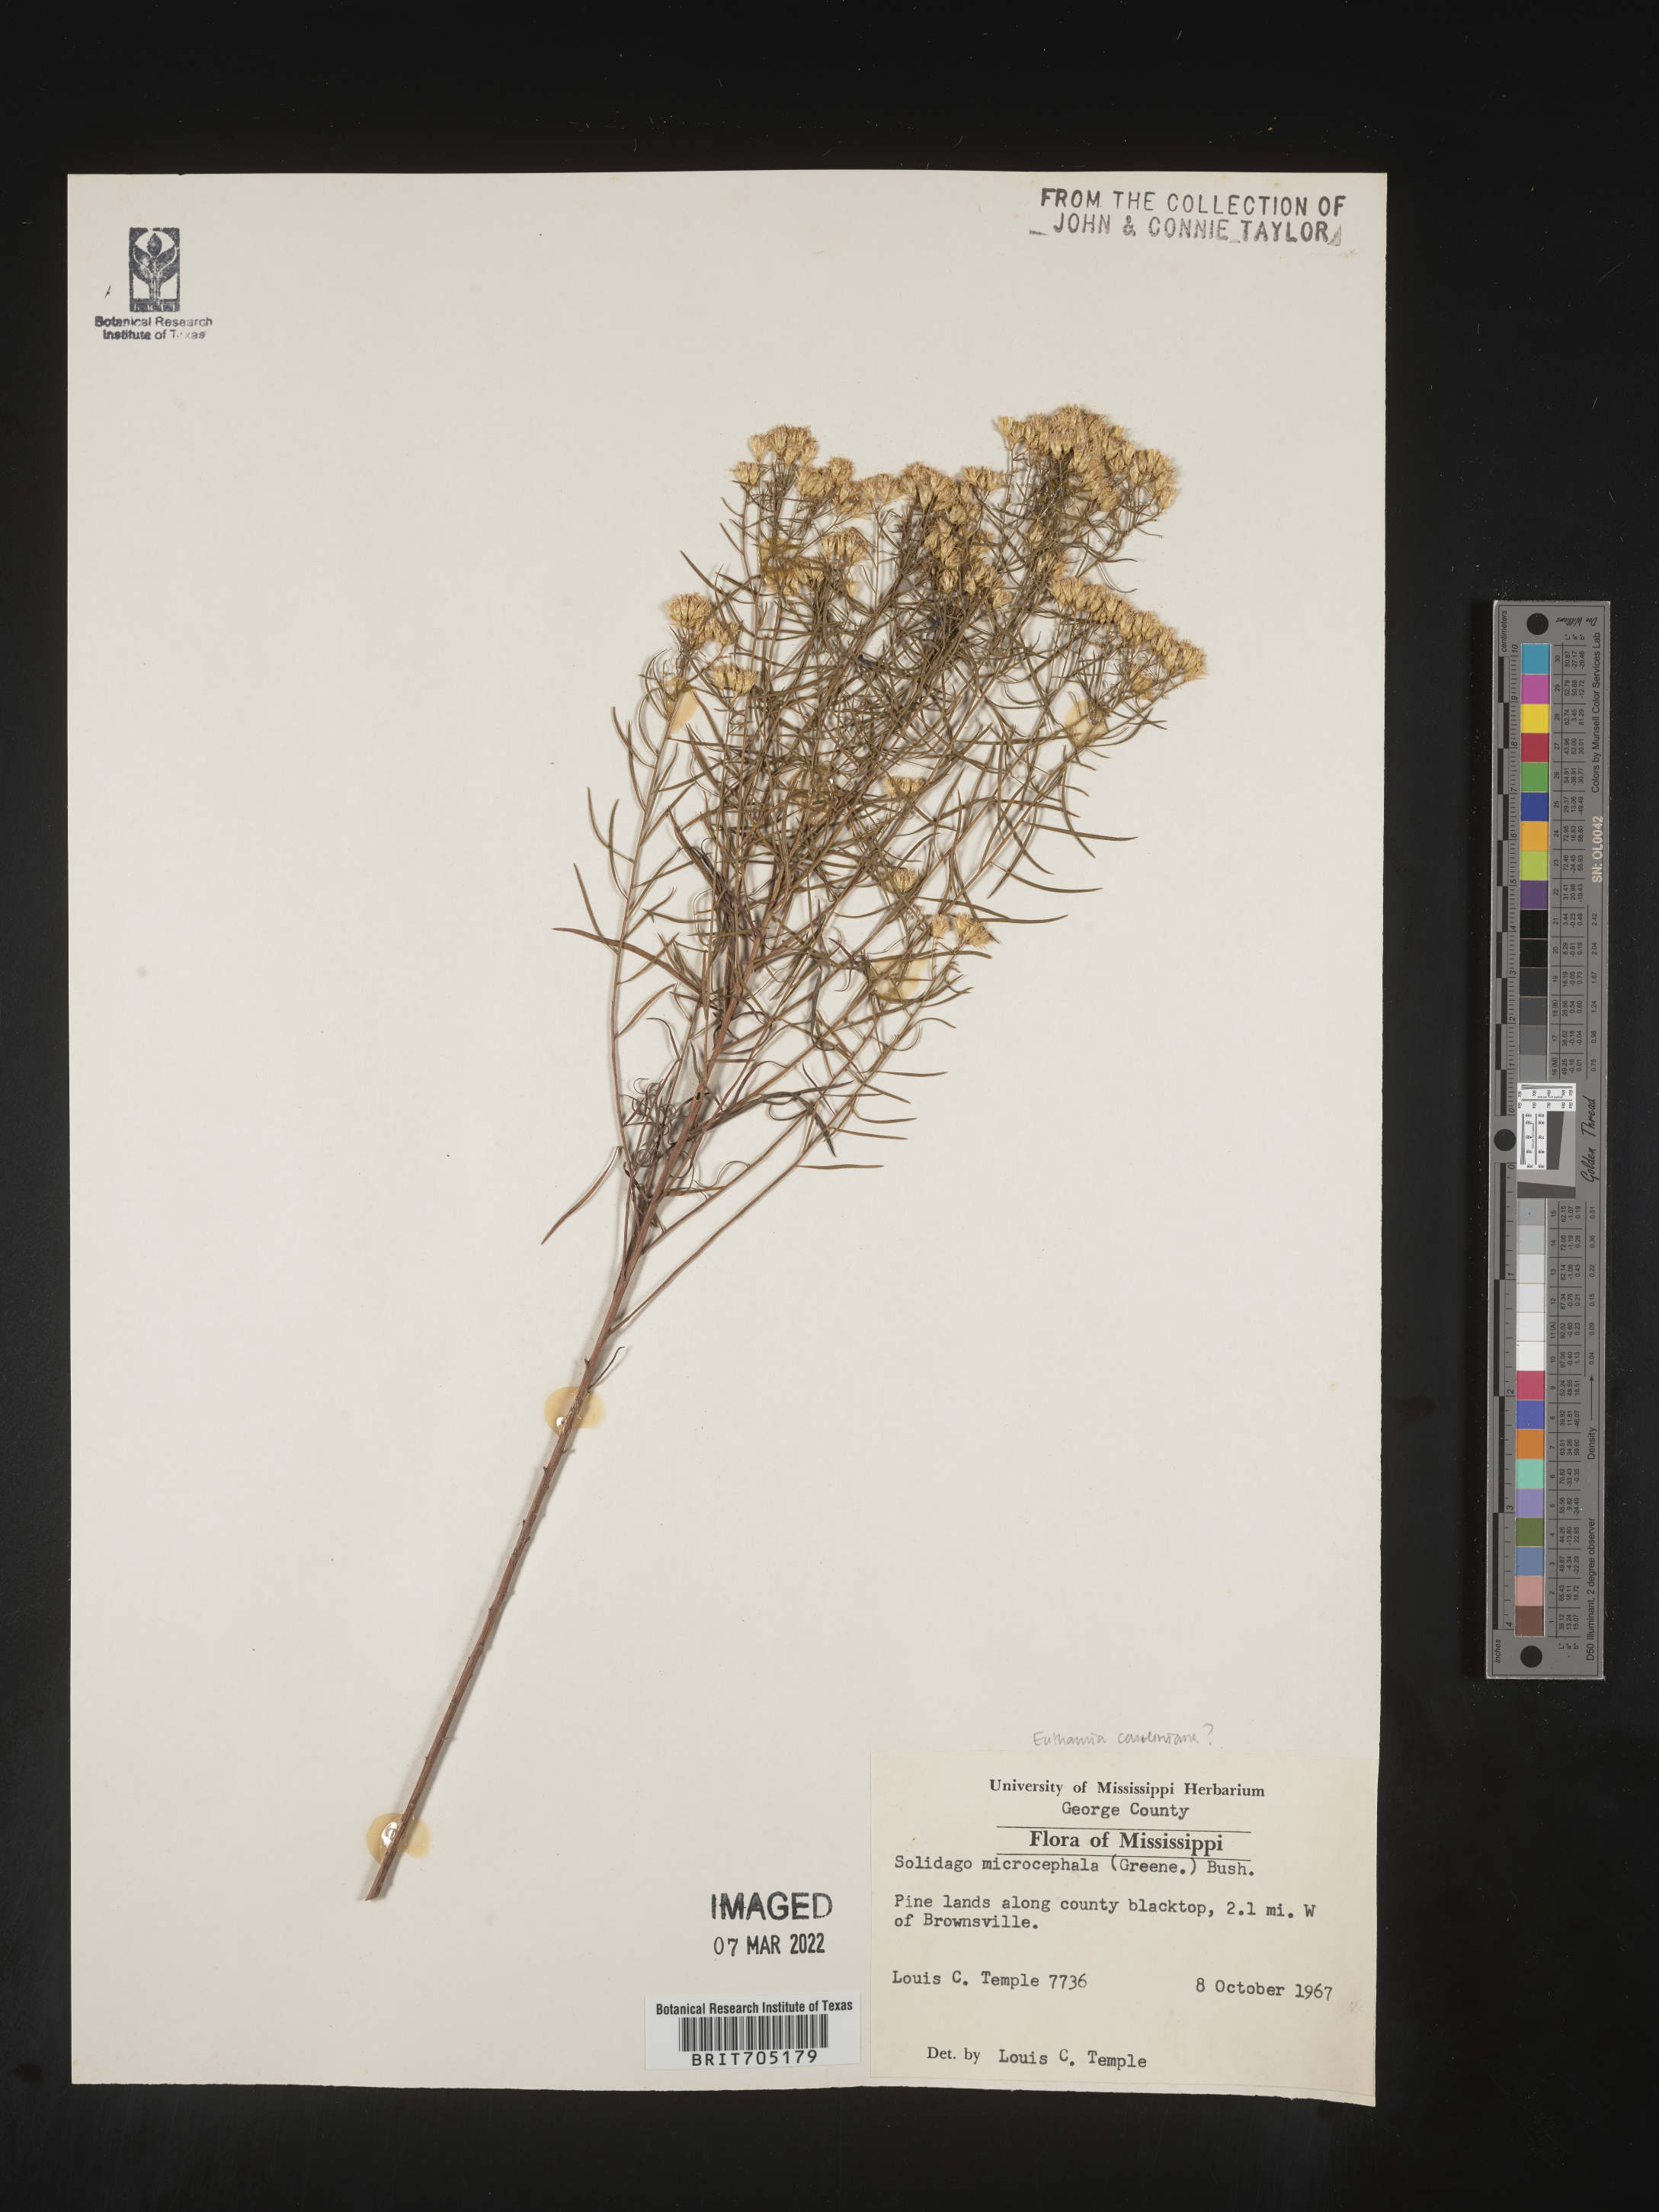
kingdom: Plantae
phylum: Tracheophyta
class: Magnoliopsida
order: Asterales
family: Asteraceae
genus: Euthamia
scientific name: Euthamia
